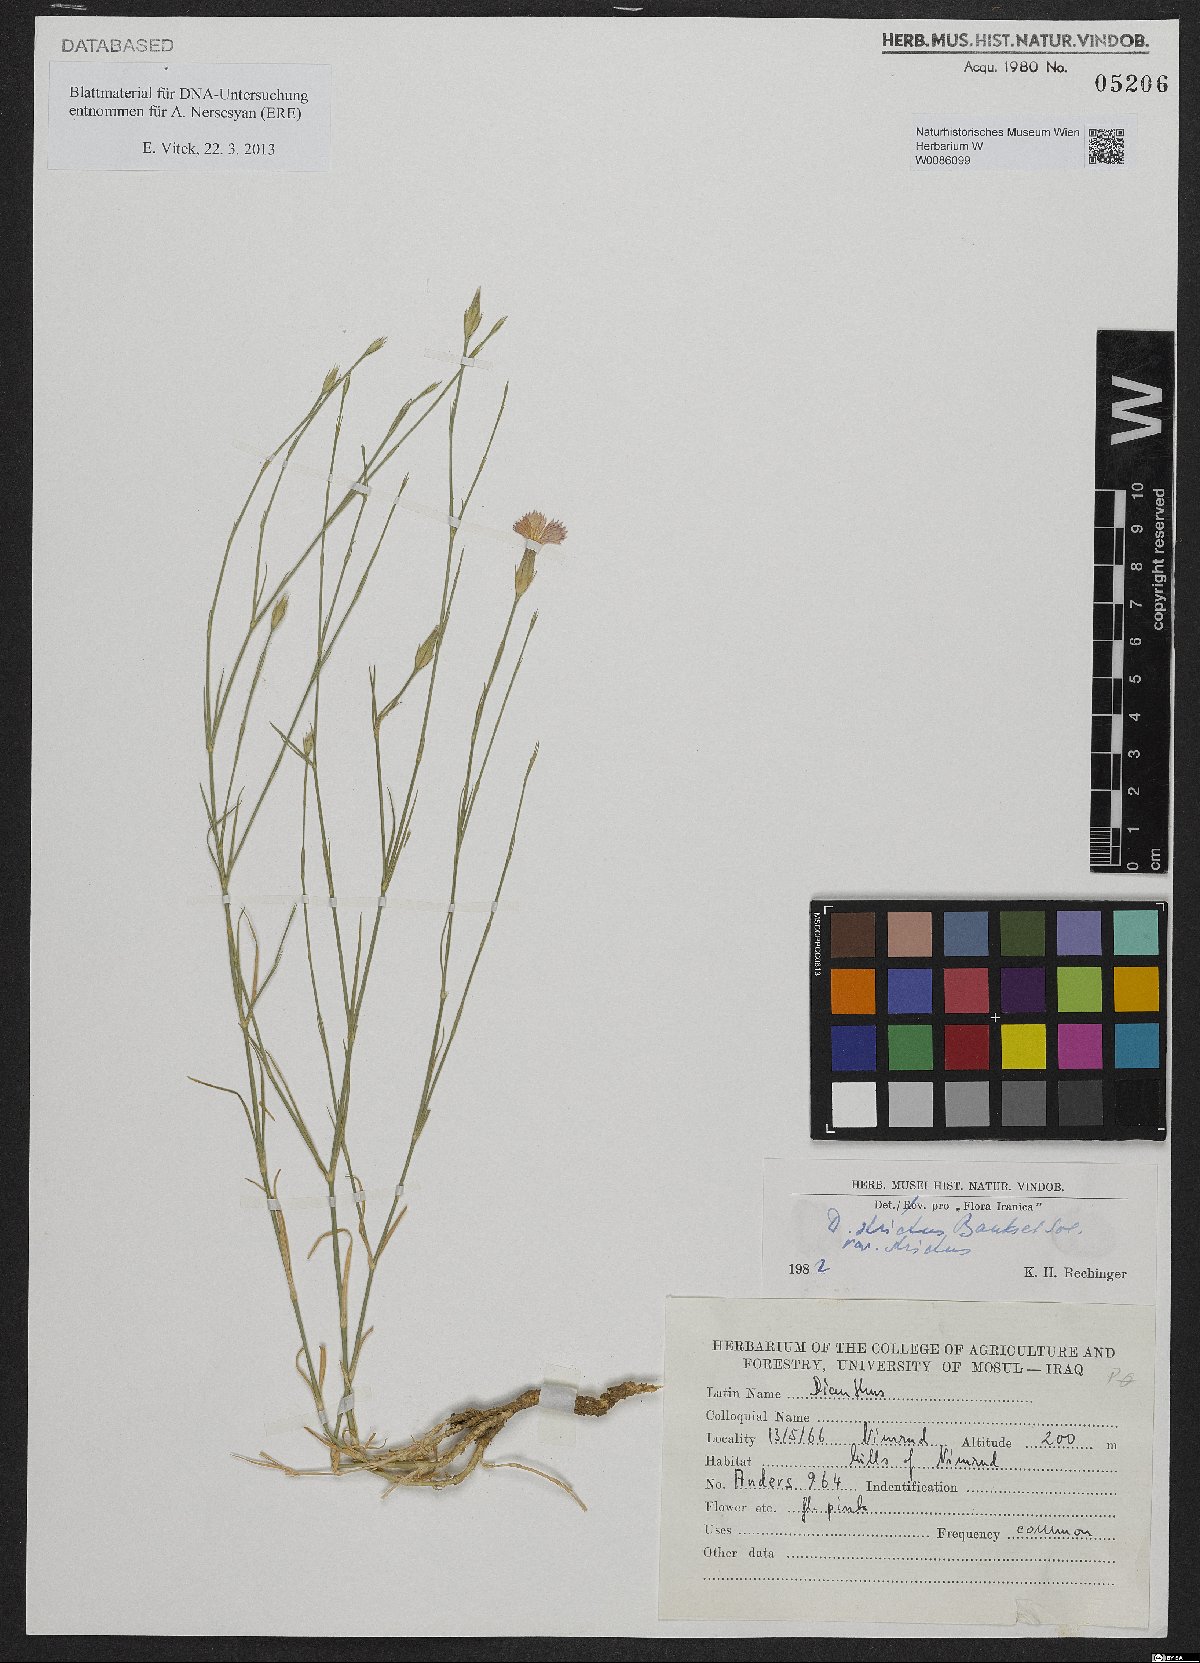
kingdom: Plantae
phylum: Tracheophyta
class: Magnoliopsida
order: Caryophyllales
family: Caryophyllaceae
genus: Dianthus
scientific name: Dianthus strictus
